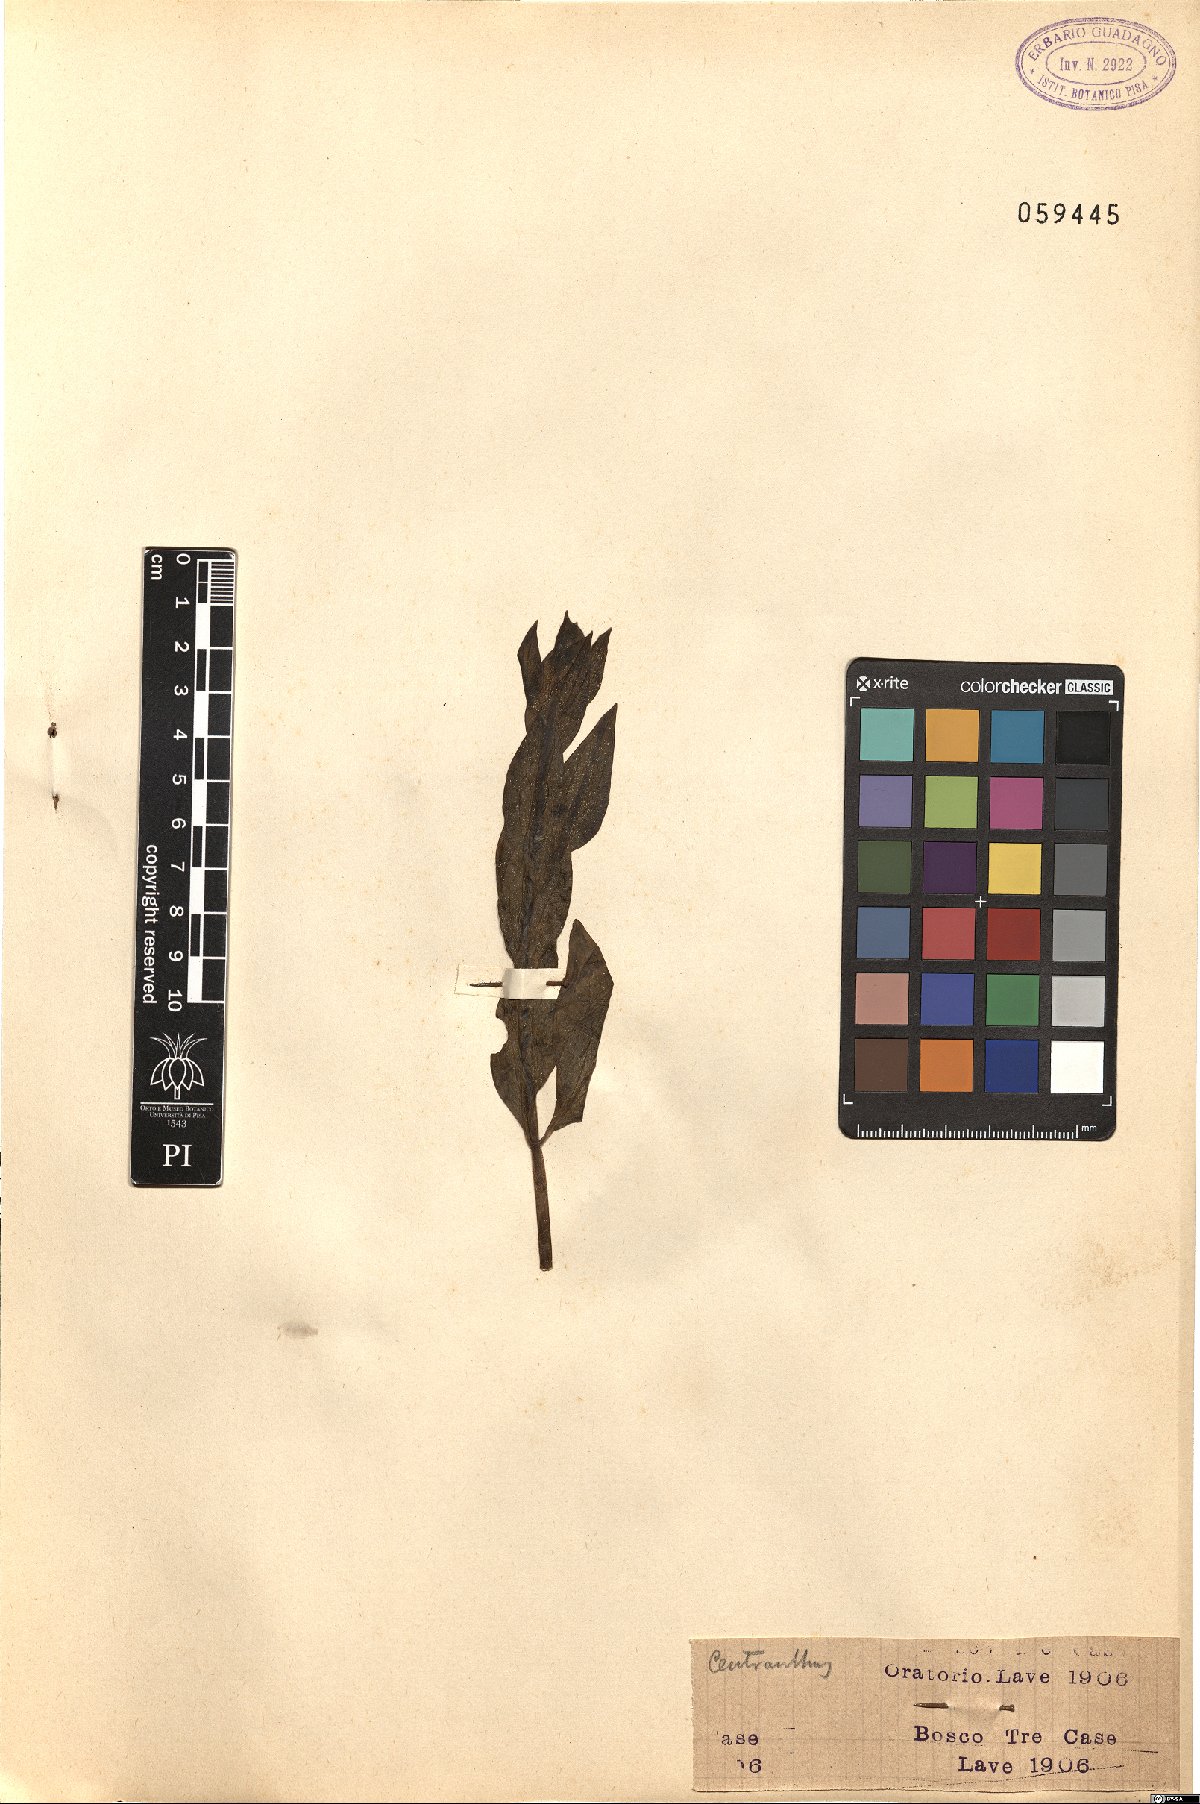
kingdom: Plantae
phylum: Tracheophyta
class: Magnoliopsida
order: Dipsacales
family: Caprifoliaceae
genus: Centranthus
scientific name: Centranthus
